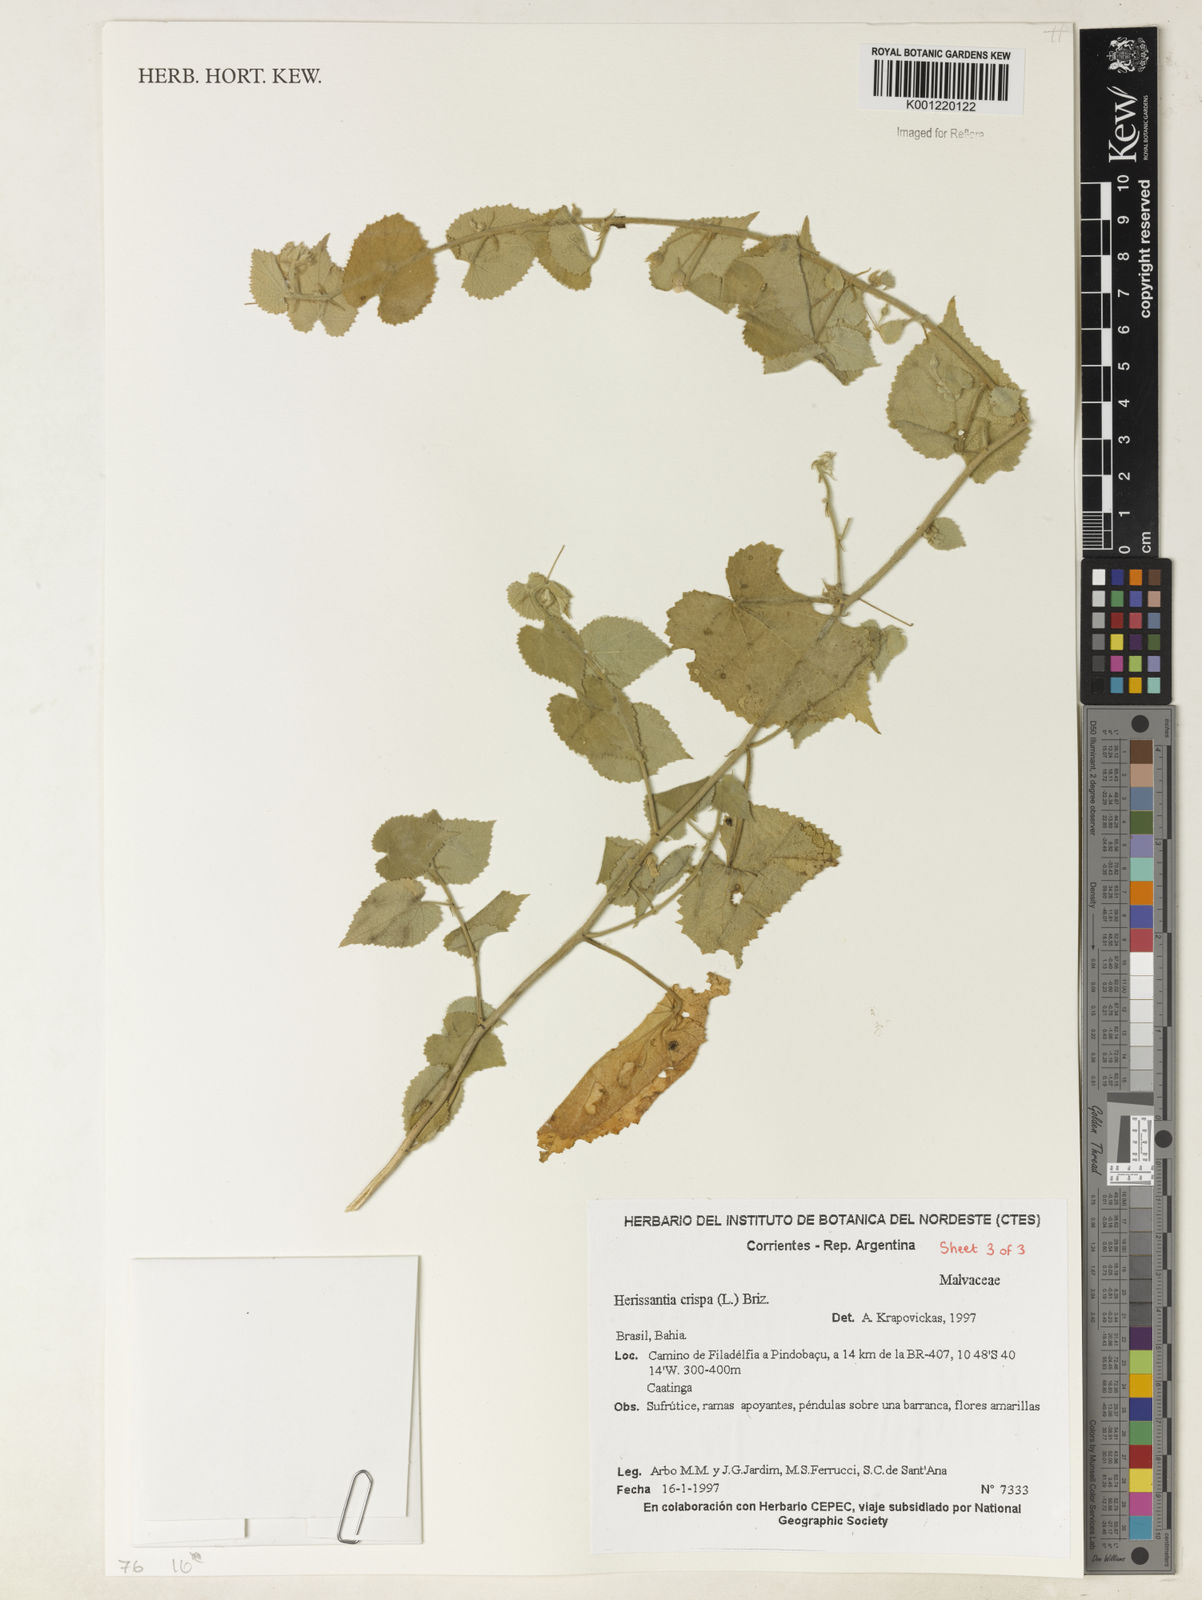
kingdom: Plantae
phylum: Tracheophyta
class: Magnoliopsida
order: Malvales
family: Malvaceae
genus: Herissantia
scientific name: Herissantia crispa
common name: Bladdermallow
